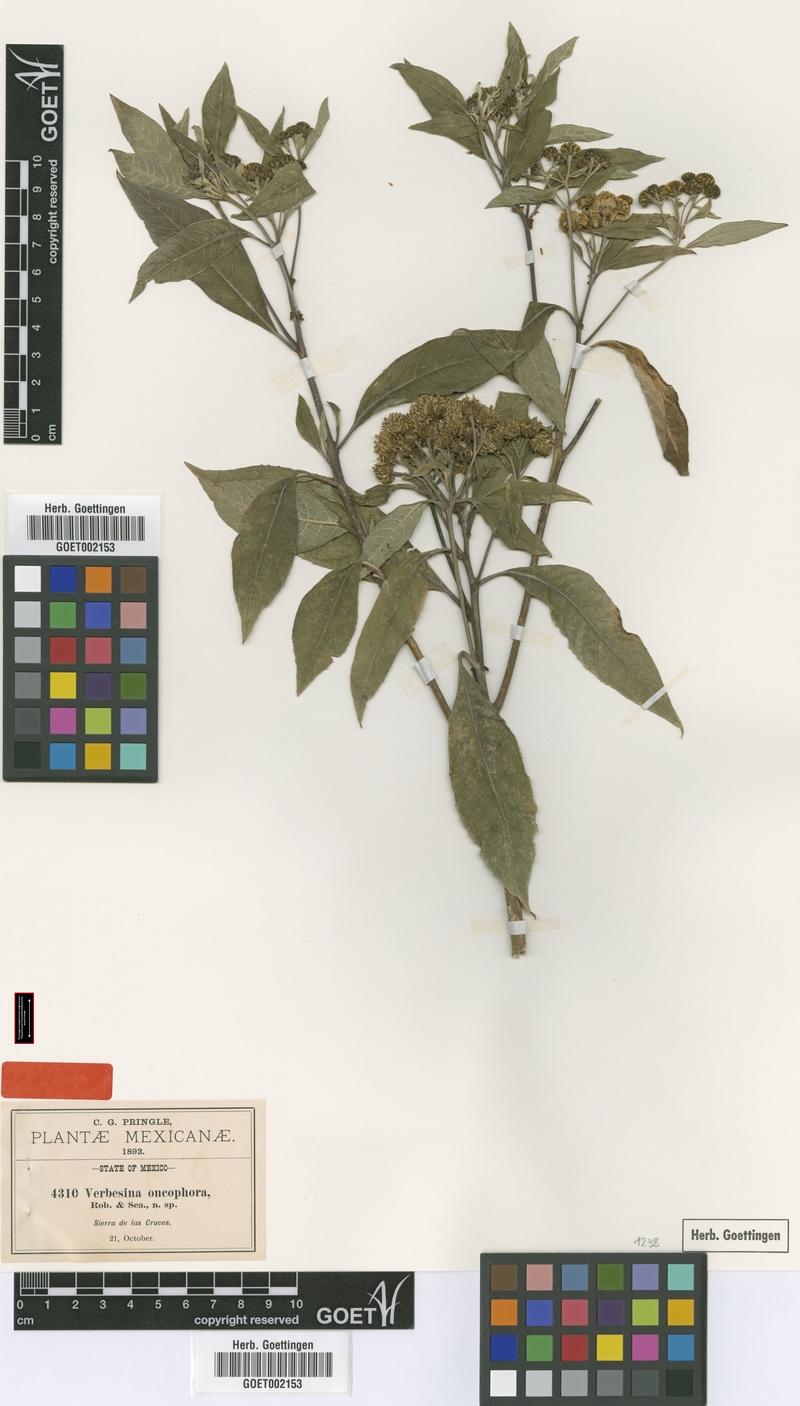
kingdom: Plantae
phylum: Tracheophyta
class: Magnoliopsida
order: Asterales
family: Asteraceae
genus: Verbesina
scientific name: Verbesina oncophora
